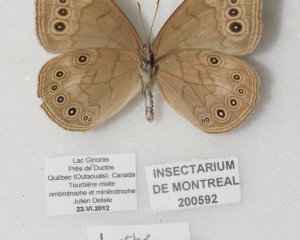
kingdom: Animalia
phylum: Arthropoda
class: Insecta
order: Lepidoptera
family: Nymphalidae
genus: Lethe
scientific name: Lethe eurydice
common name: Eyed Brown
